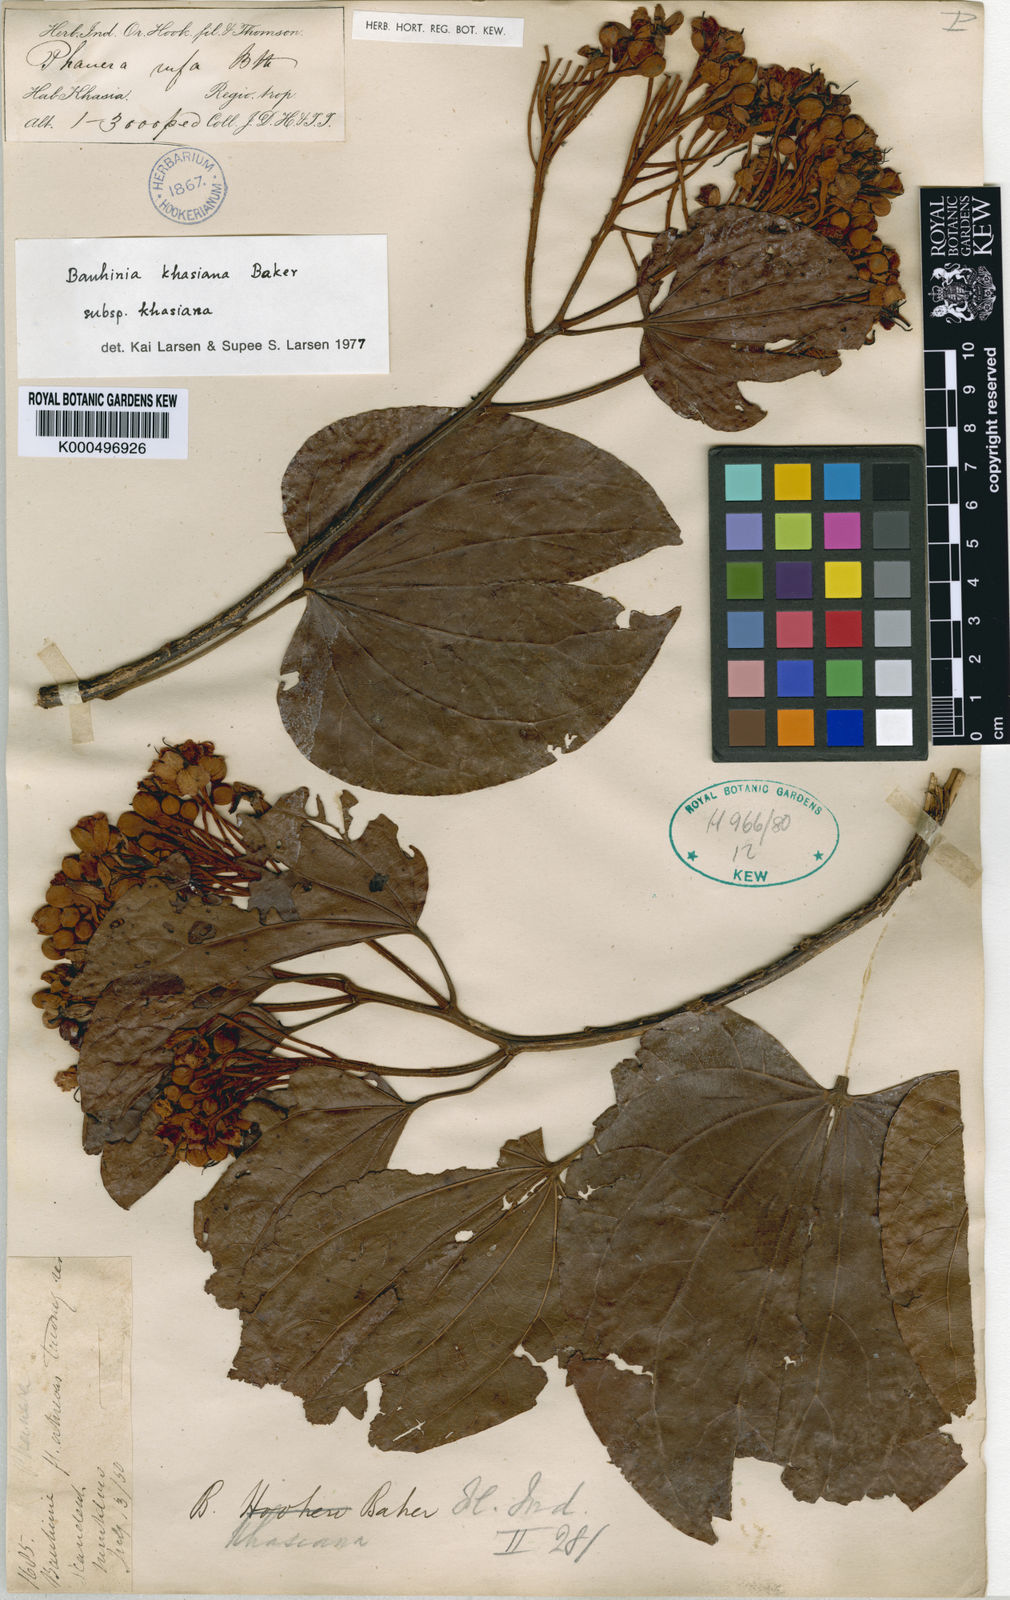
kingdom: Plantae
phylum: Tracheophyta
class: Magnoliopsida
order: Fabales
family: Fabaceae
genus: Phanera
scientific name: Phanera khasiana
